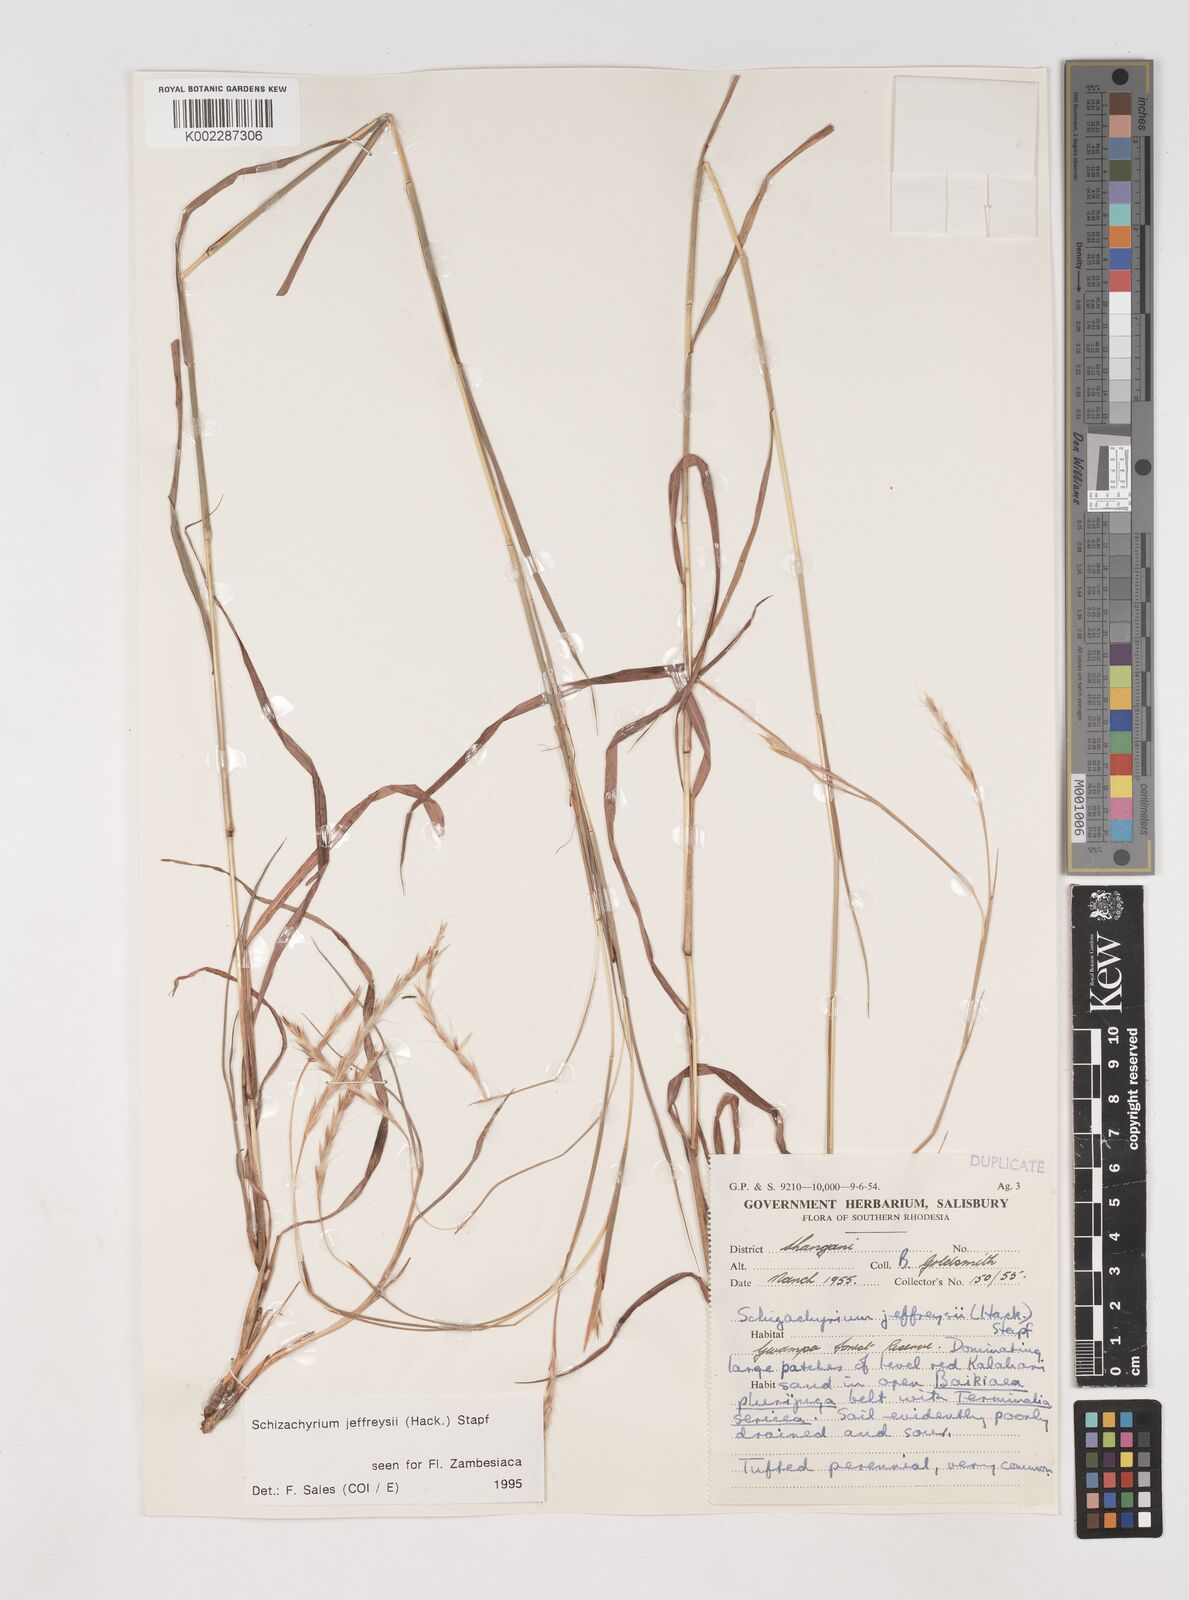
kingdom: Plantae
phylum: Tracheophyta
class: Liliopsida
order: Poales
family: Poaceae
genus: Schizachyrium
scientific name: Schizachyrium jeffreysii
